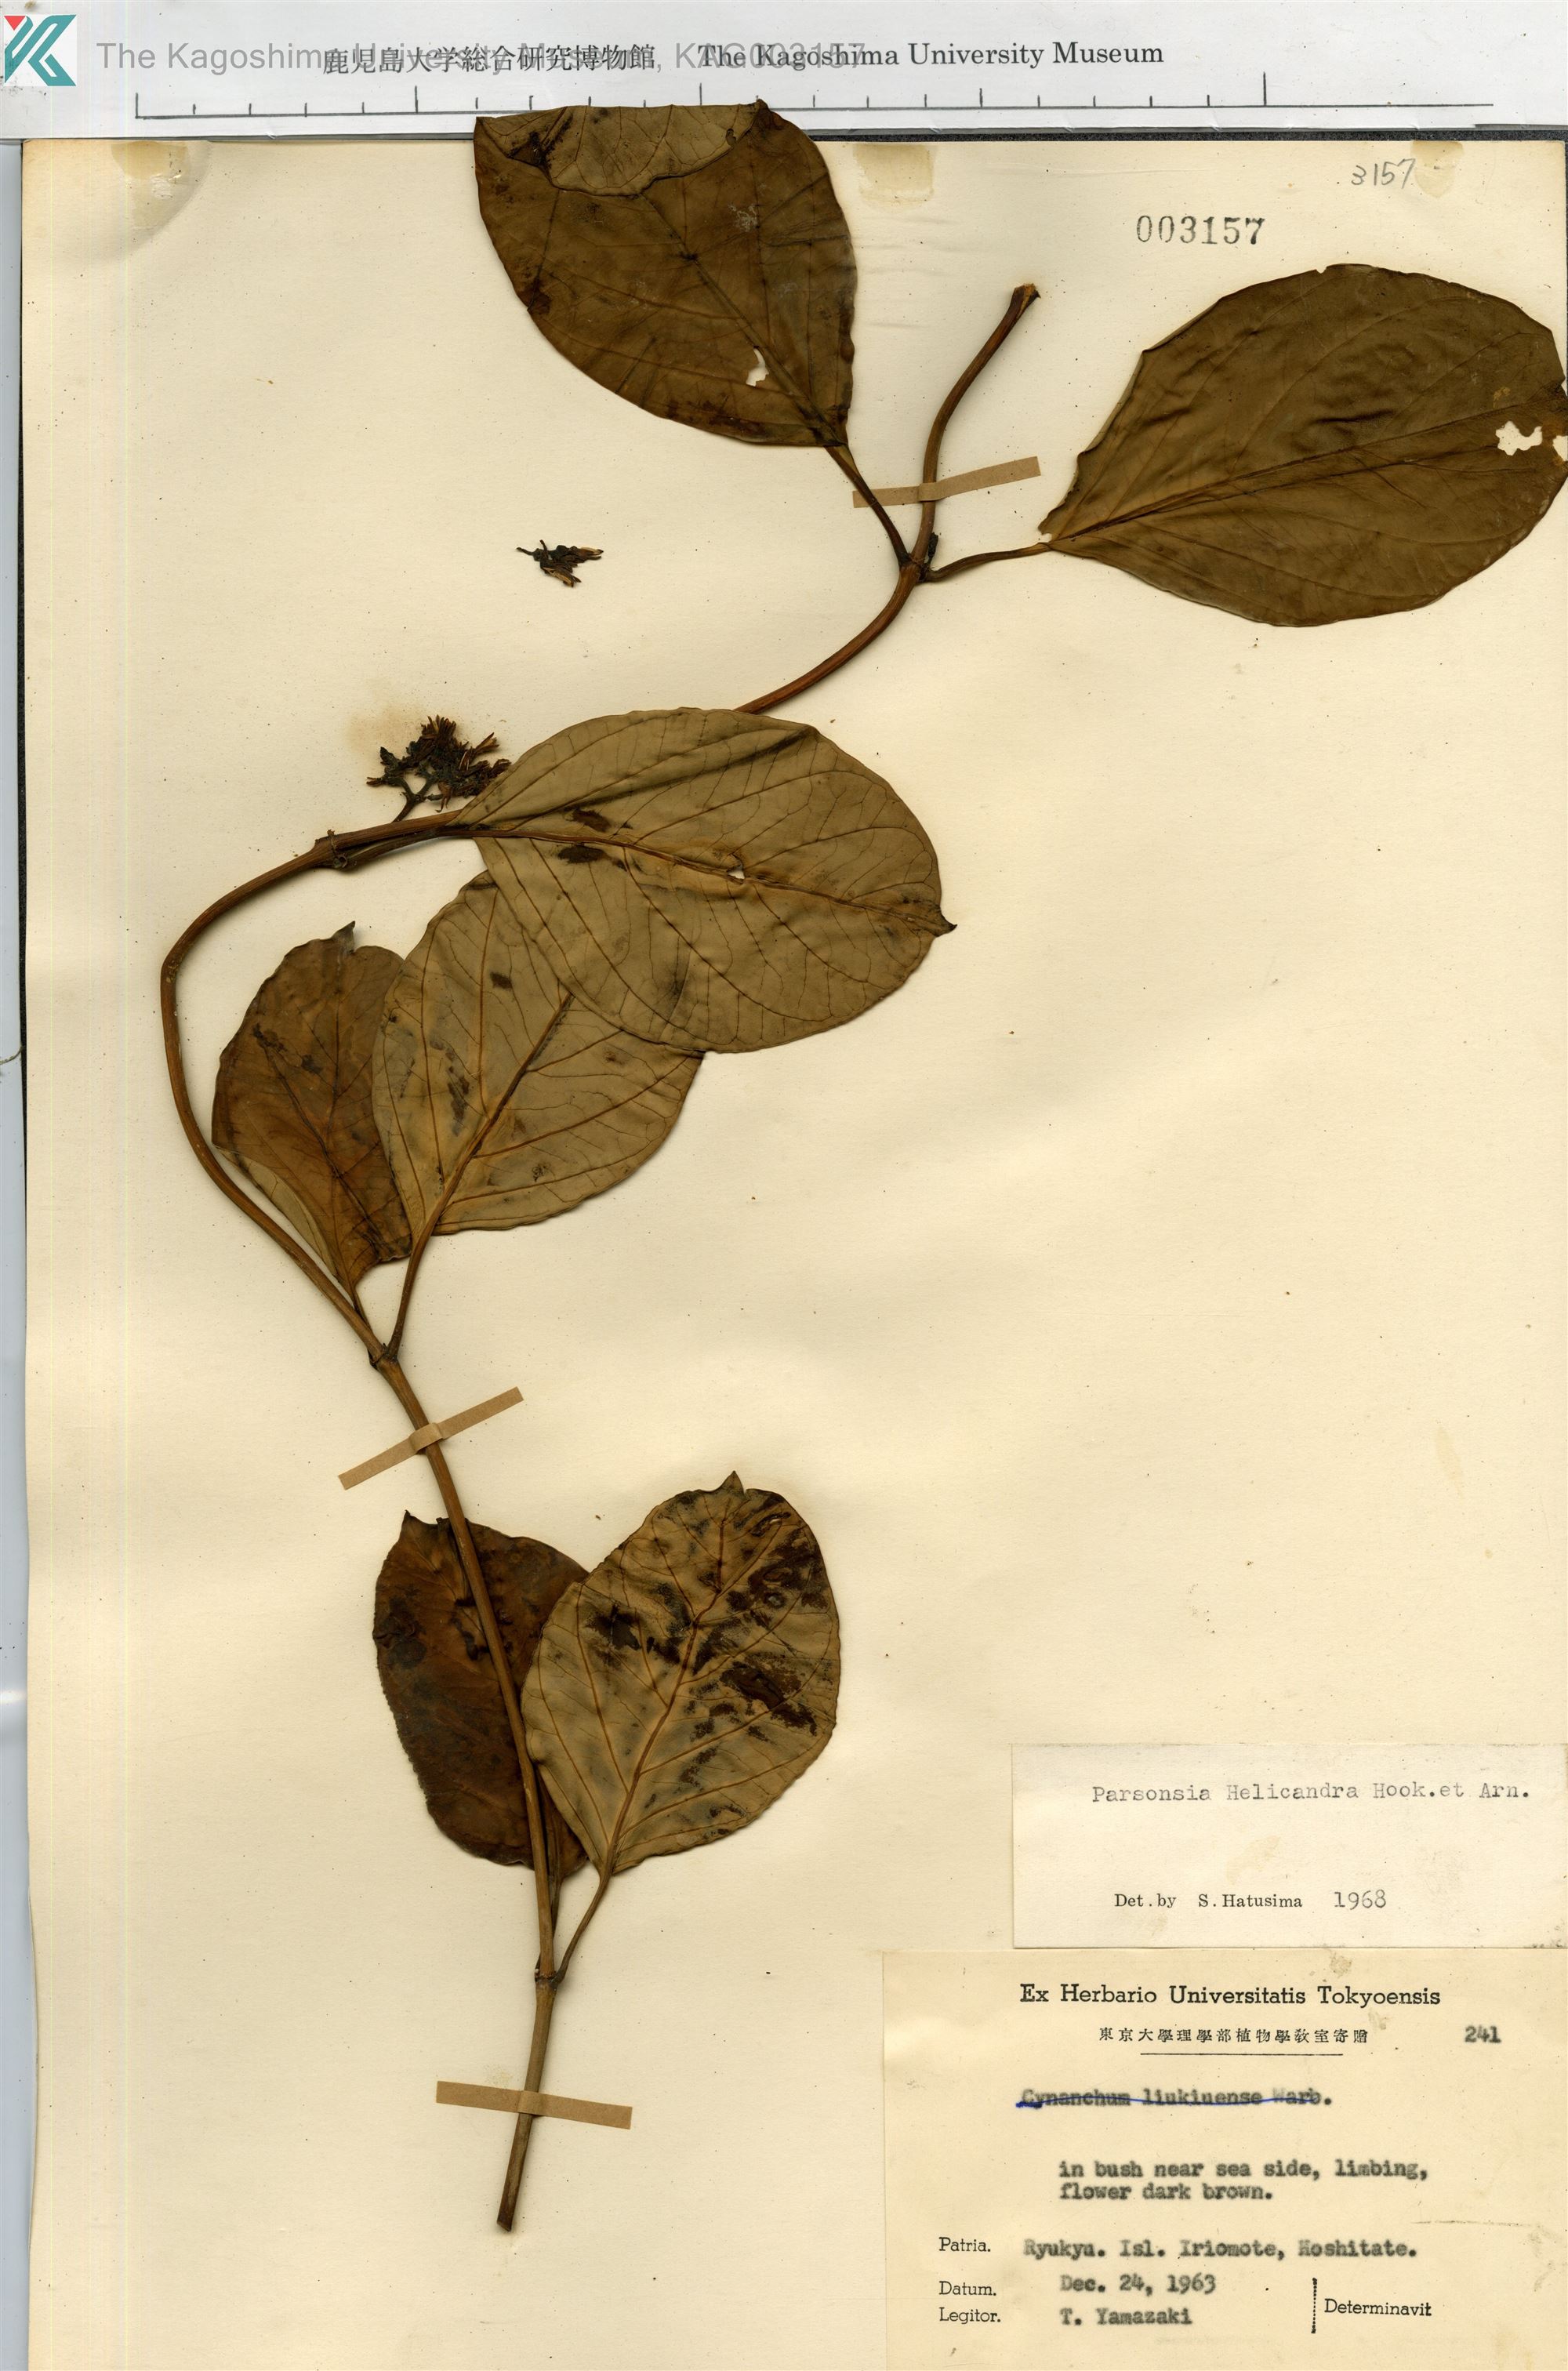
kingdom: Plantae
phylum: Tracheophyta
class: Magnoliopsida
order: Gentianales
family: Apocynaceae
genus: Parsonsia
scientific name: Parsonsia alboflavescens
